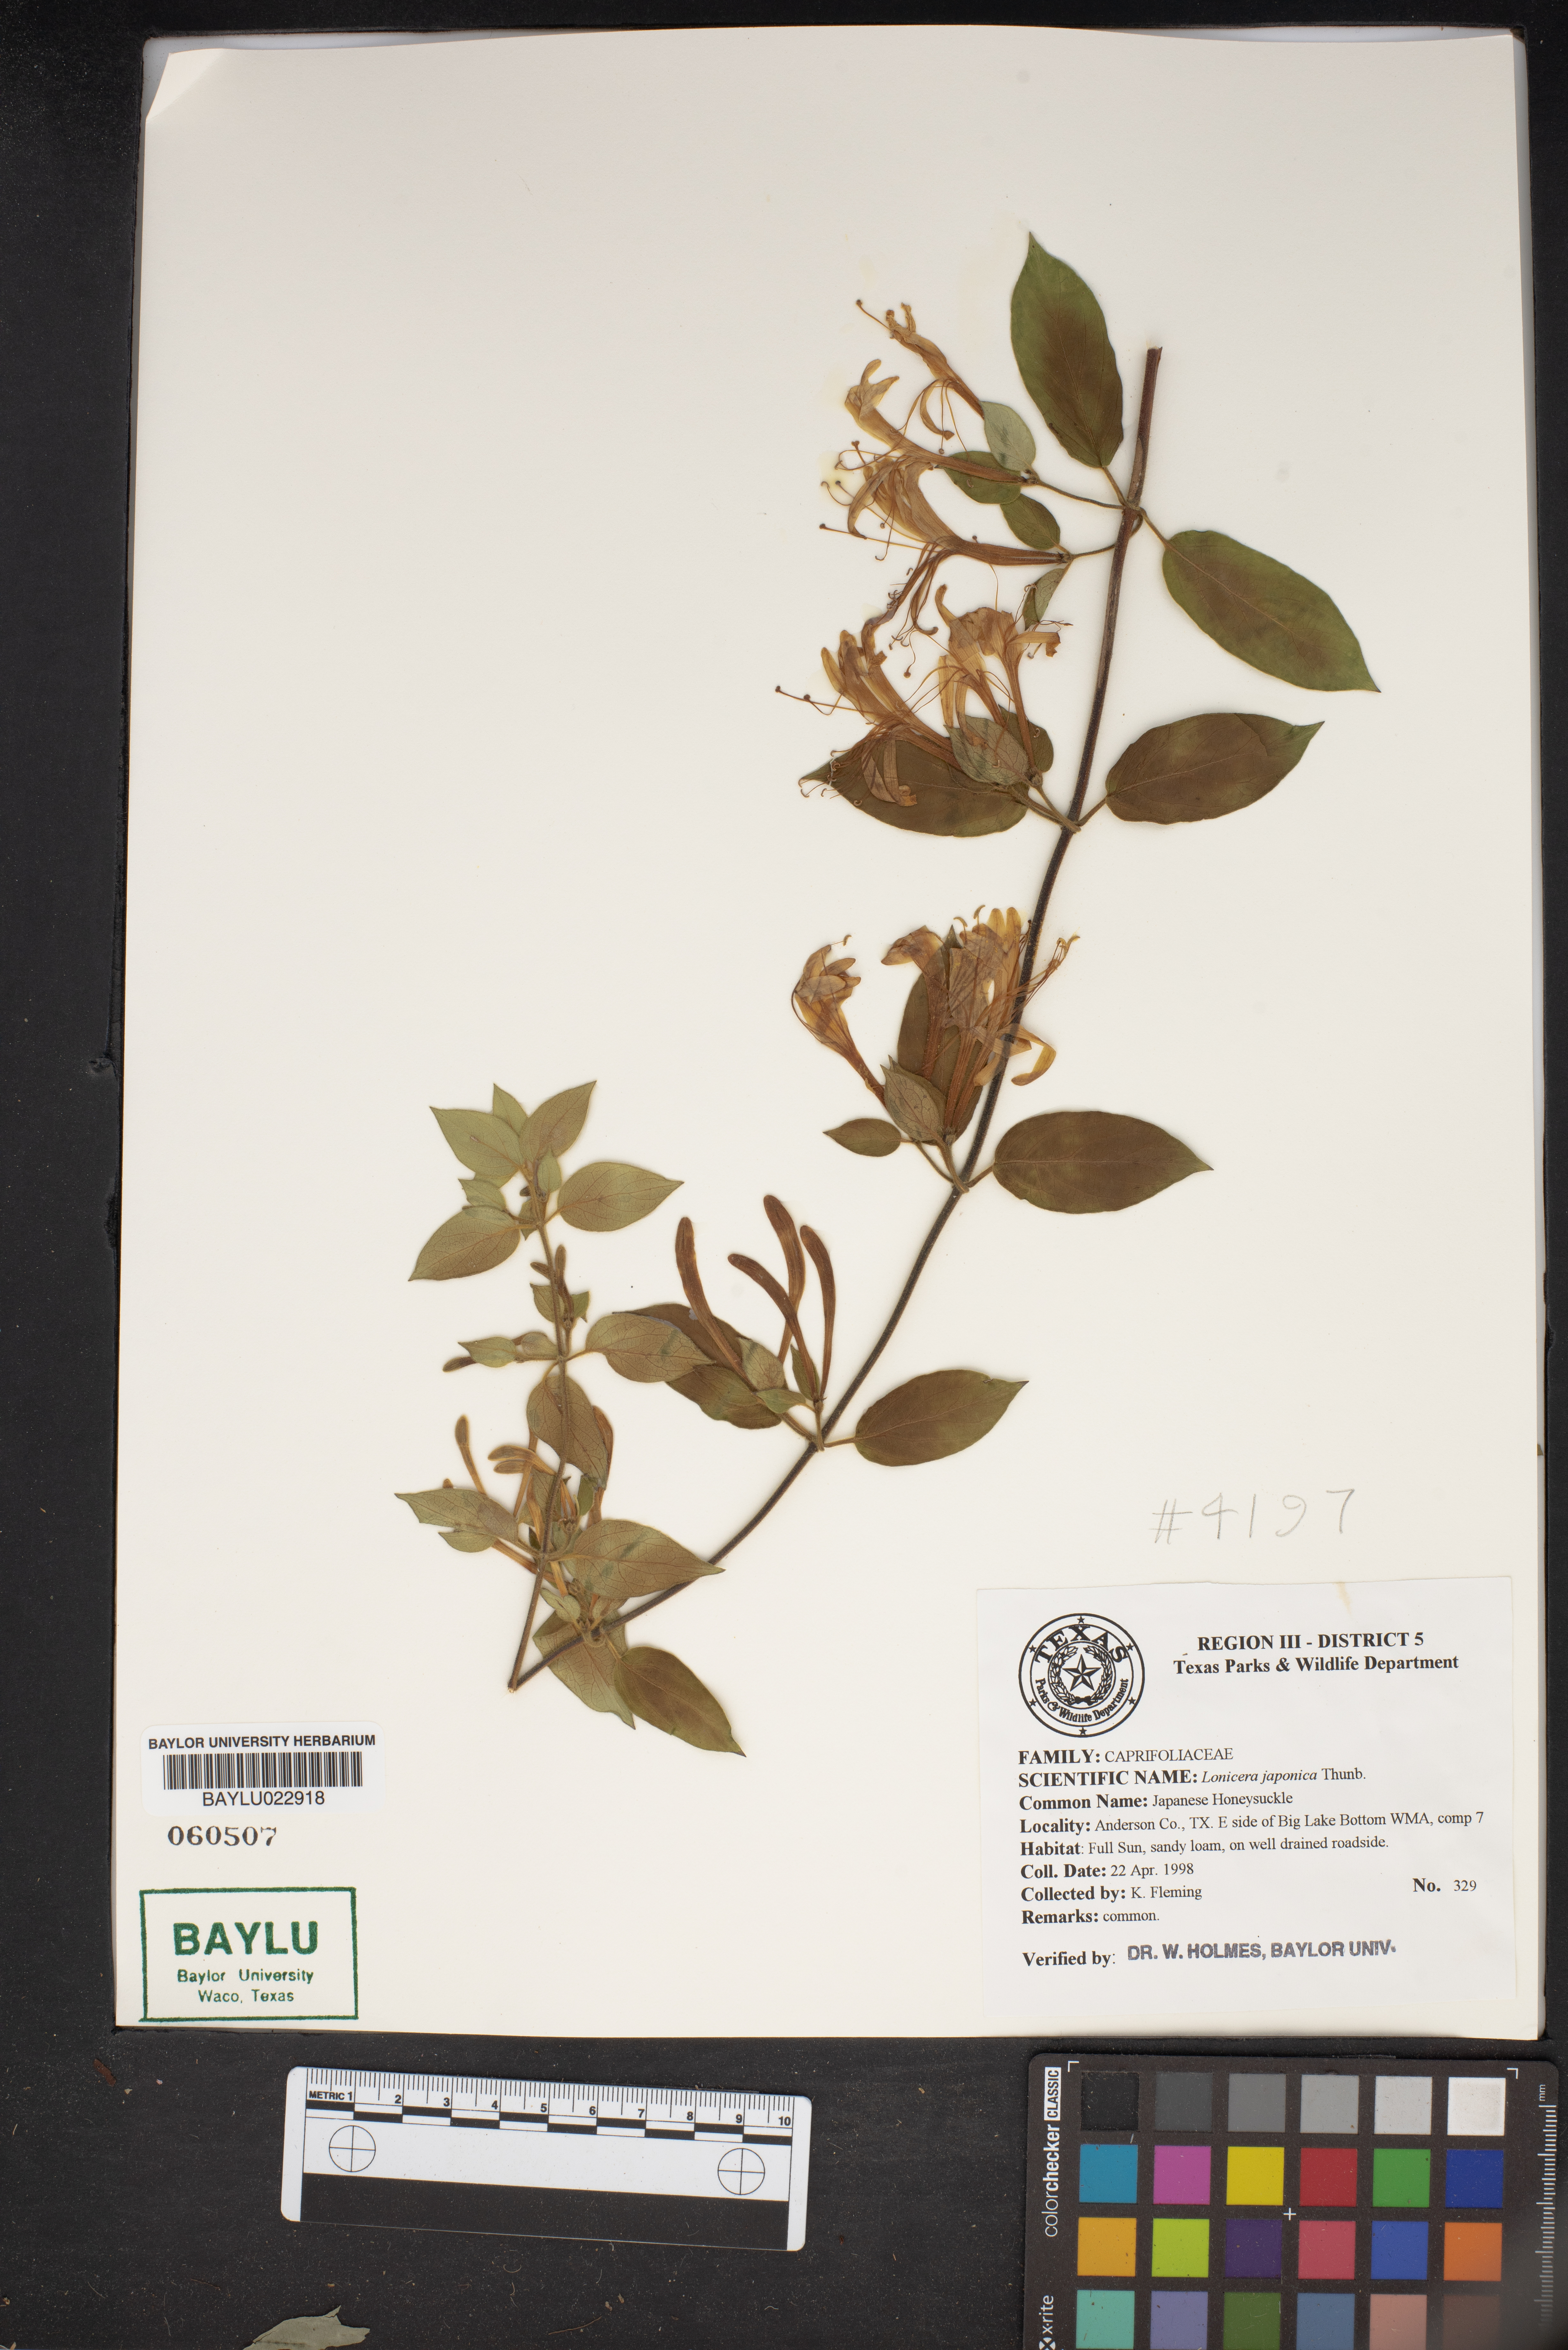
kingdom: Plantae
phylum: Tracheophyta
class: Magnoliopsida
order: Dipsacales
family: Caprifoliaceae
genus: Lonicera
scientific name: Lonicera japonica
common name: Japanese honeysuckle
